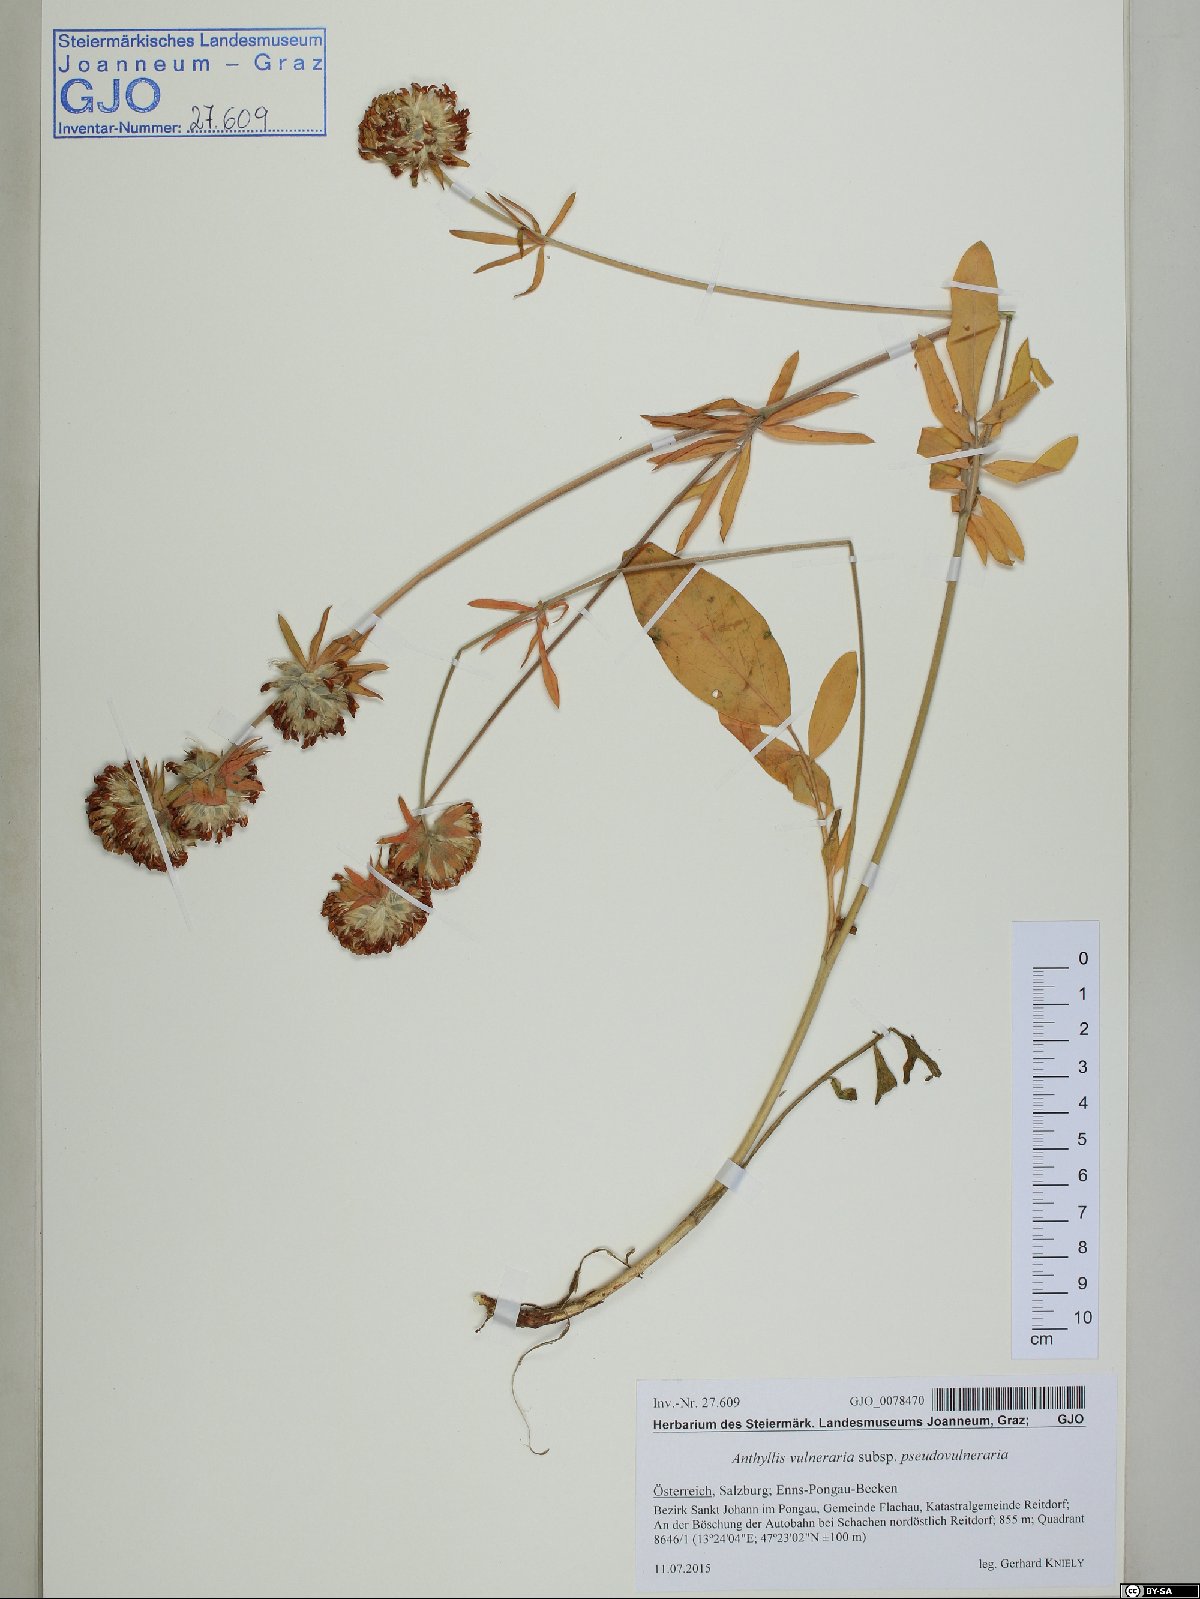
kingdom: Plantae
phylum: Tracheophyta
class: Magnoliopsida
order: Fabales
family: Fabaceae
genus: Anthyllis
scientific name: Anthyllis vulneraria
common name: Kidney vetch
